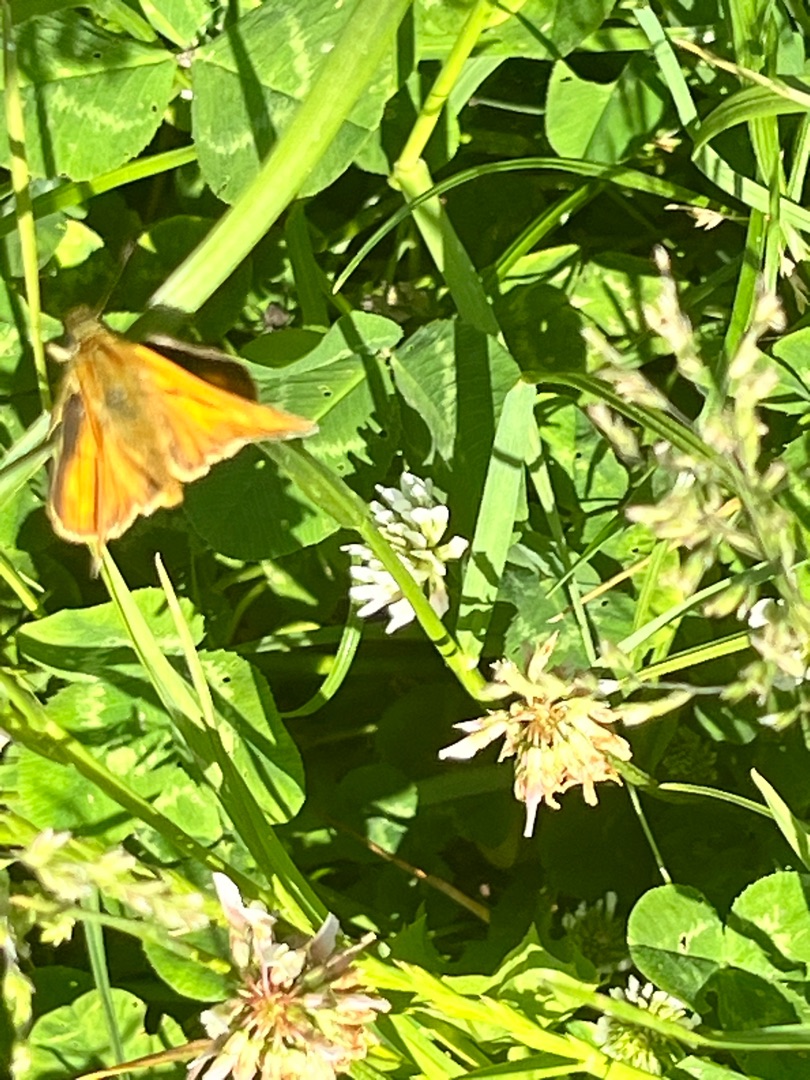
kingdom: Animalia
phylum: Arthropoda
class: Insecta
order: Lepidoptera
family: Hesperiidae
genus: Ochlodes
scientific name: Ochlodes venata
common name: Stor bredpande
